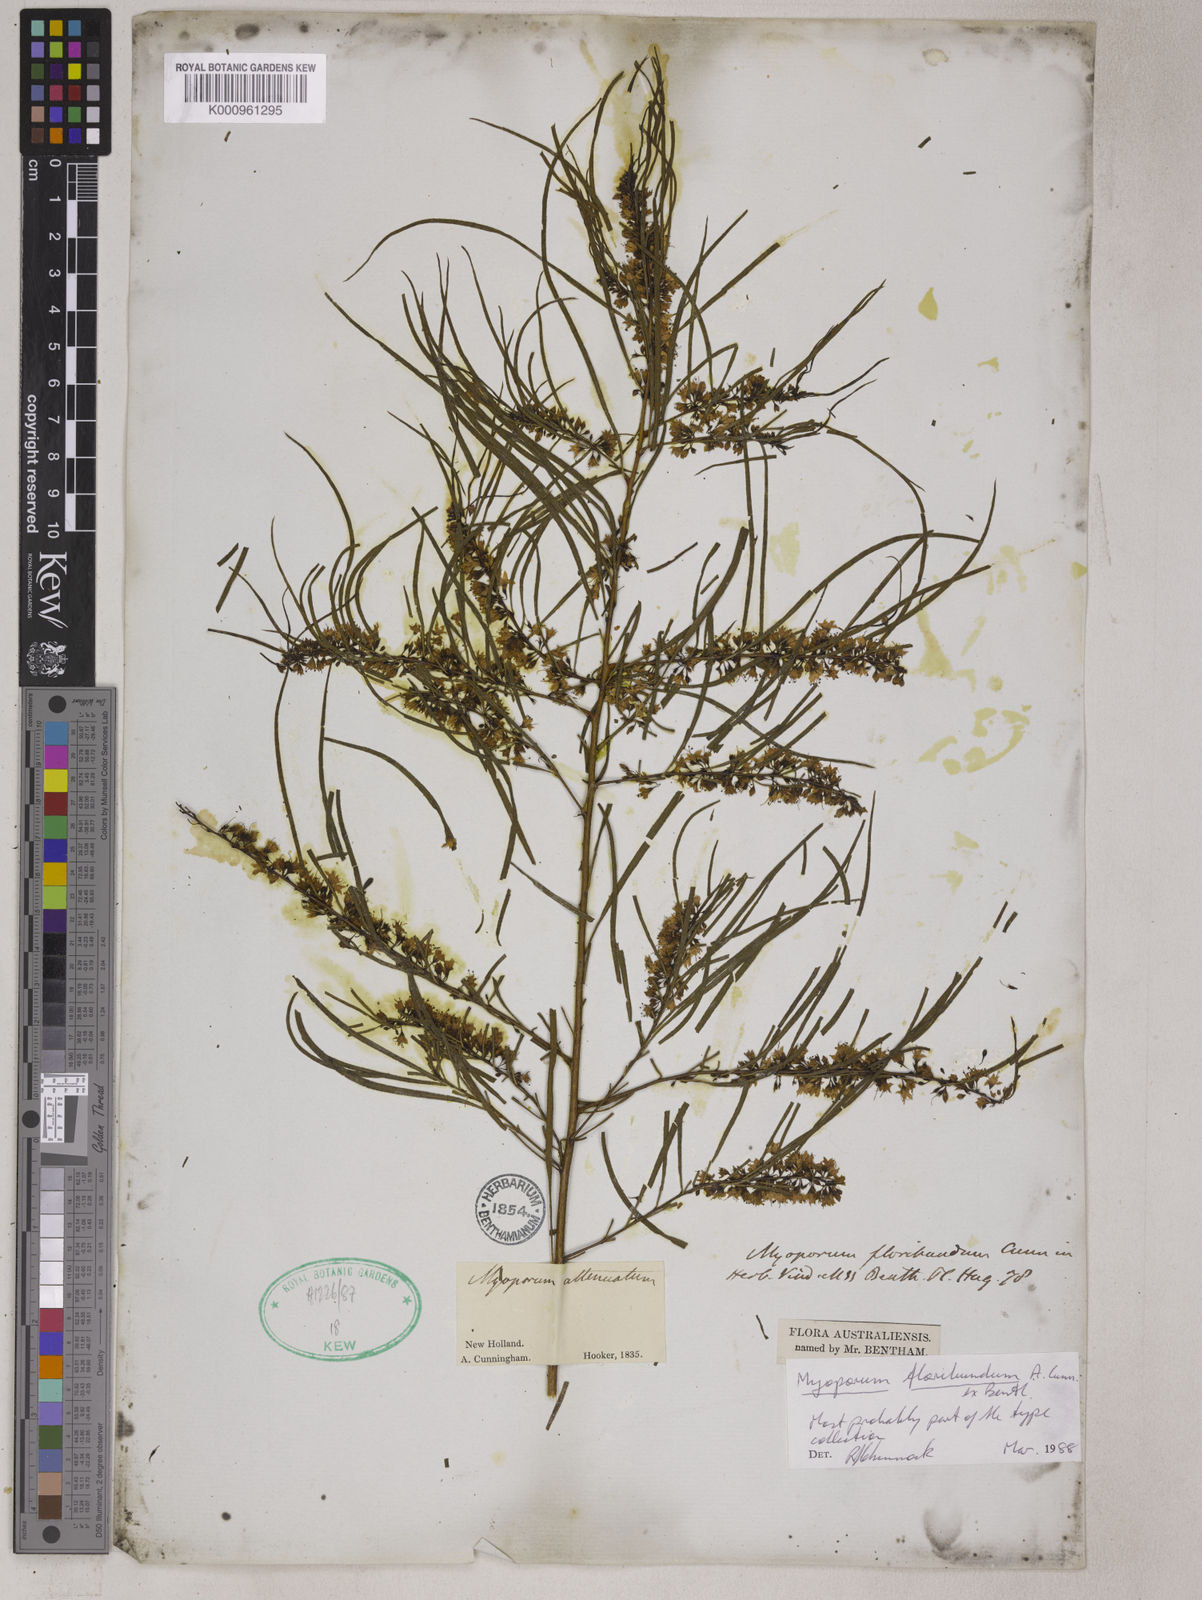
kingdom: Plantae
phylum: Tracheophyta
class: Magnoliopsida
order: Lamiales
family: Scrophulariaceae
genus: Myoporum
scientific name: Myoporum floribundum
